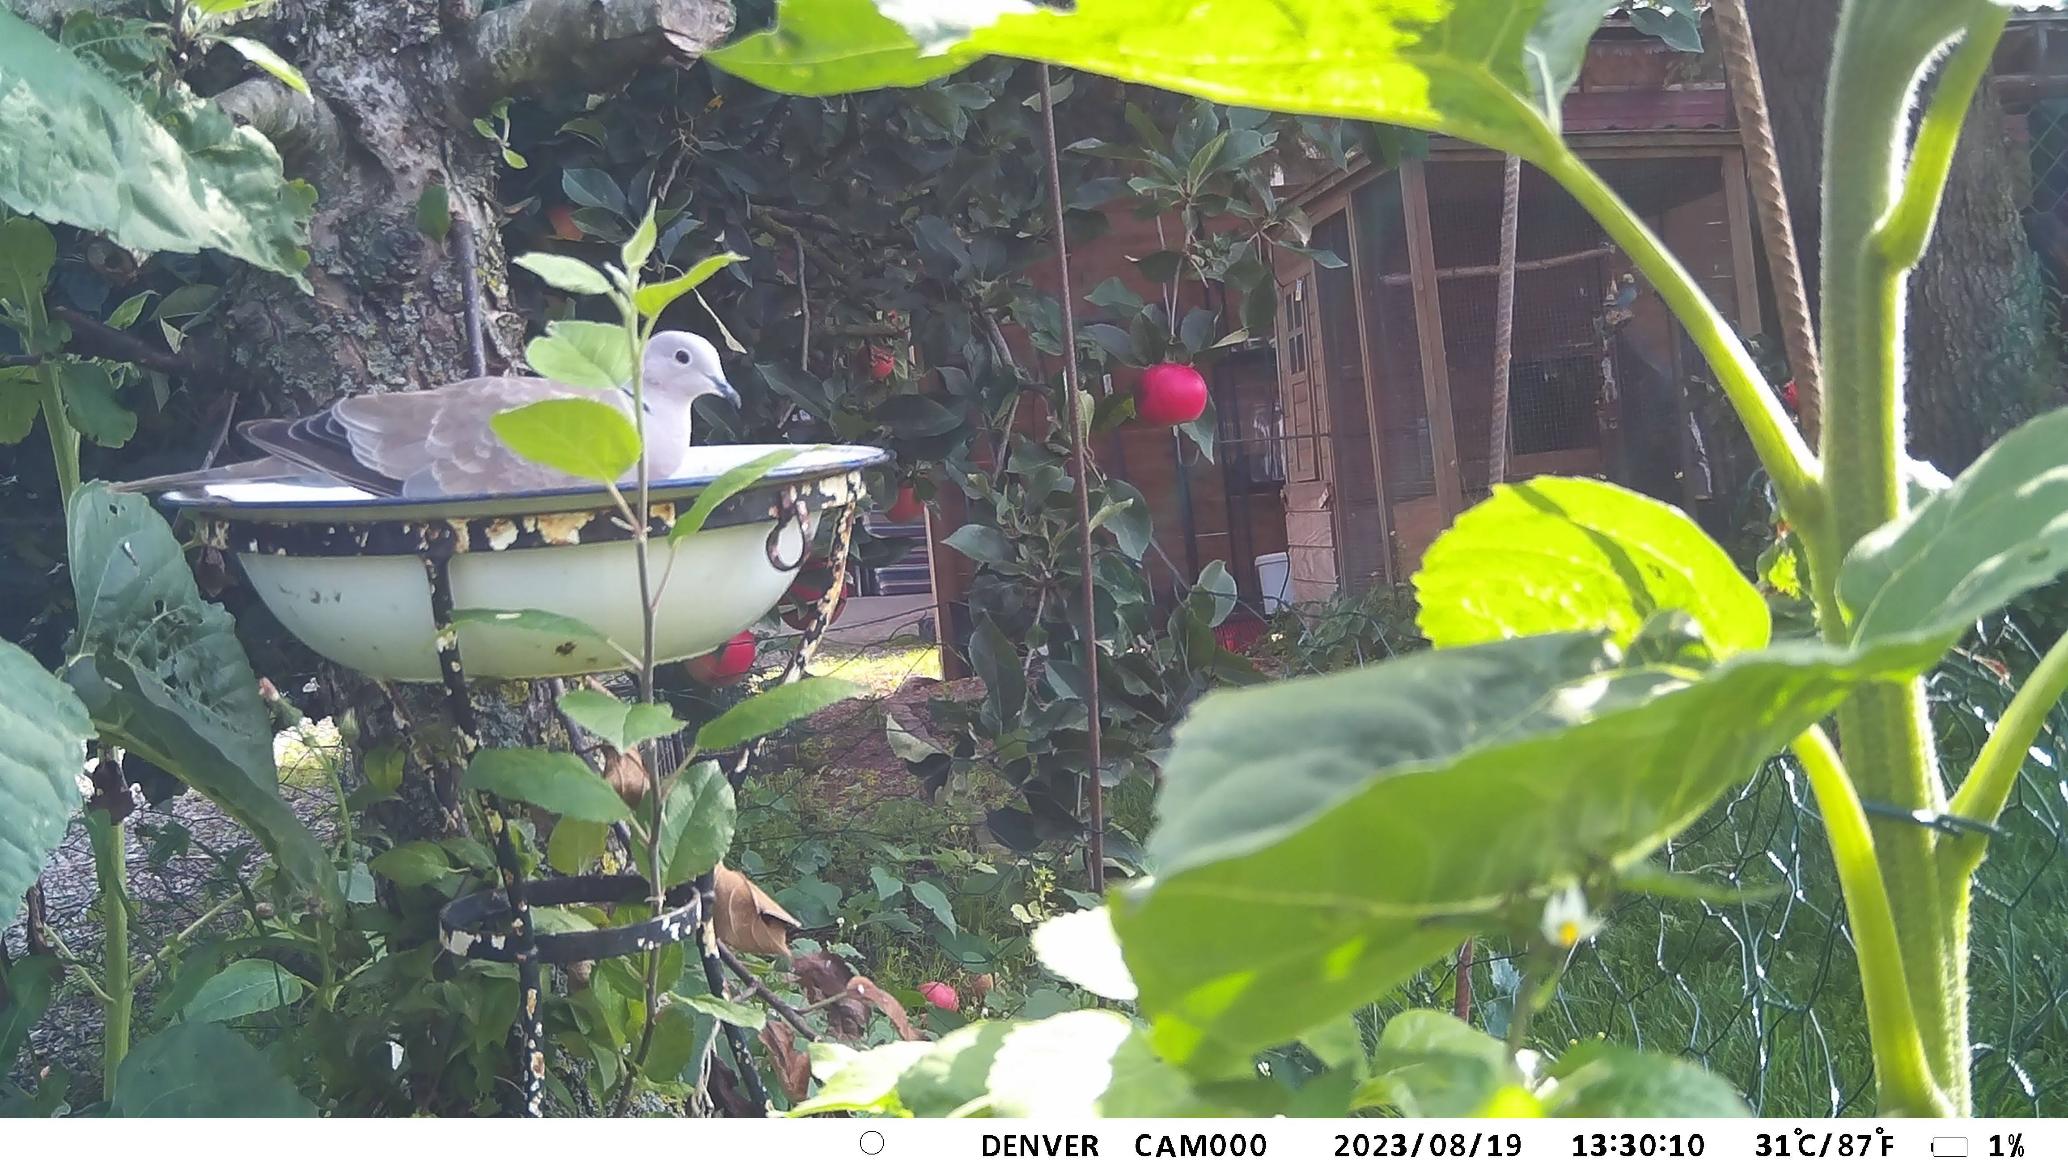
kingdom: Animalia
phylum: Chordata
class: Aves
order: Columbiformes
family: Columbidae
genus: Streptopelia
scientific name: Streptopelia decaocto
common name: Tyrkerdue
